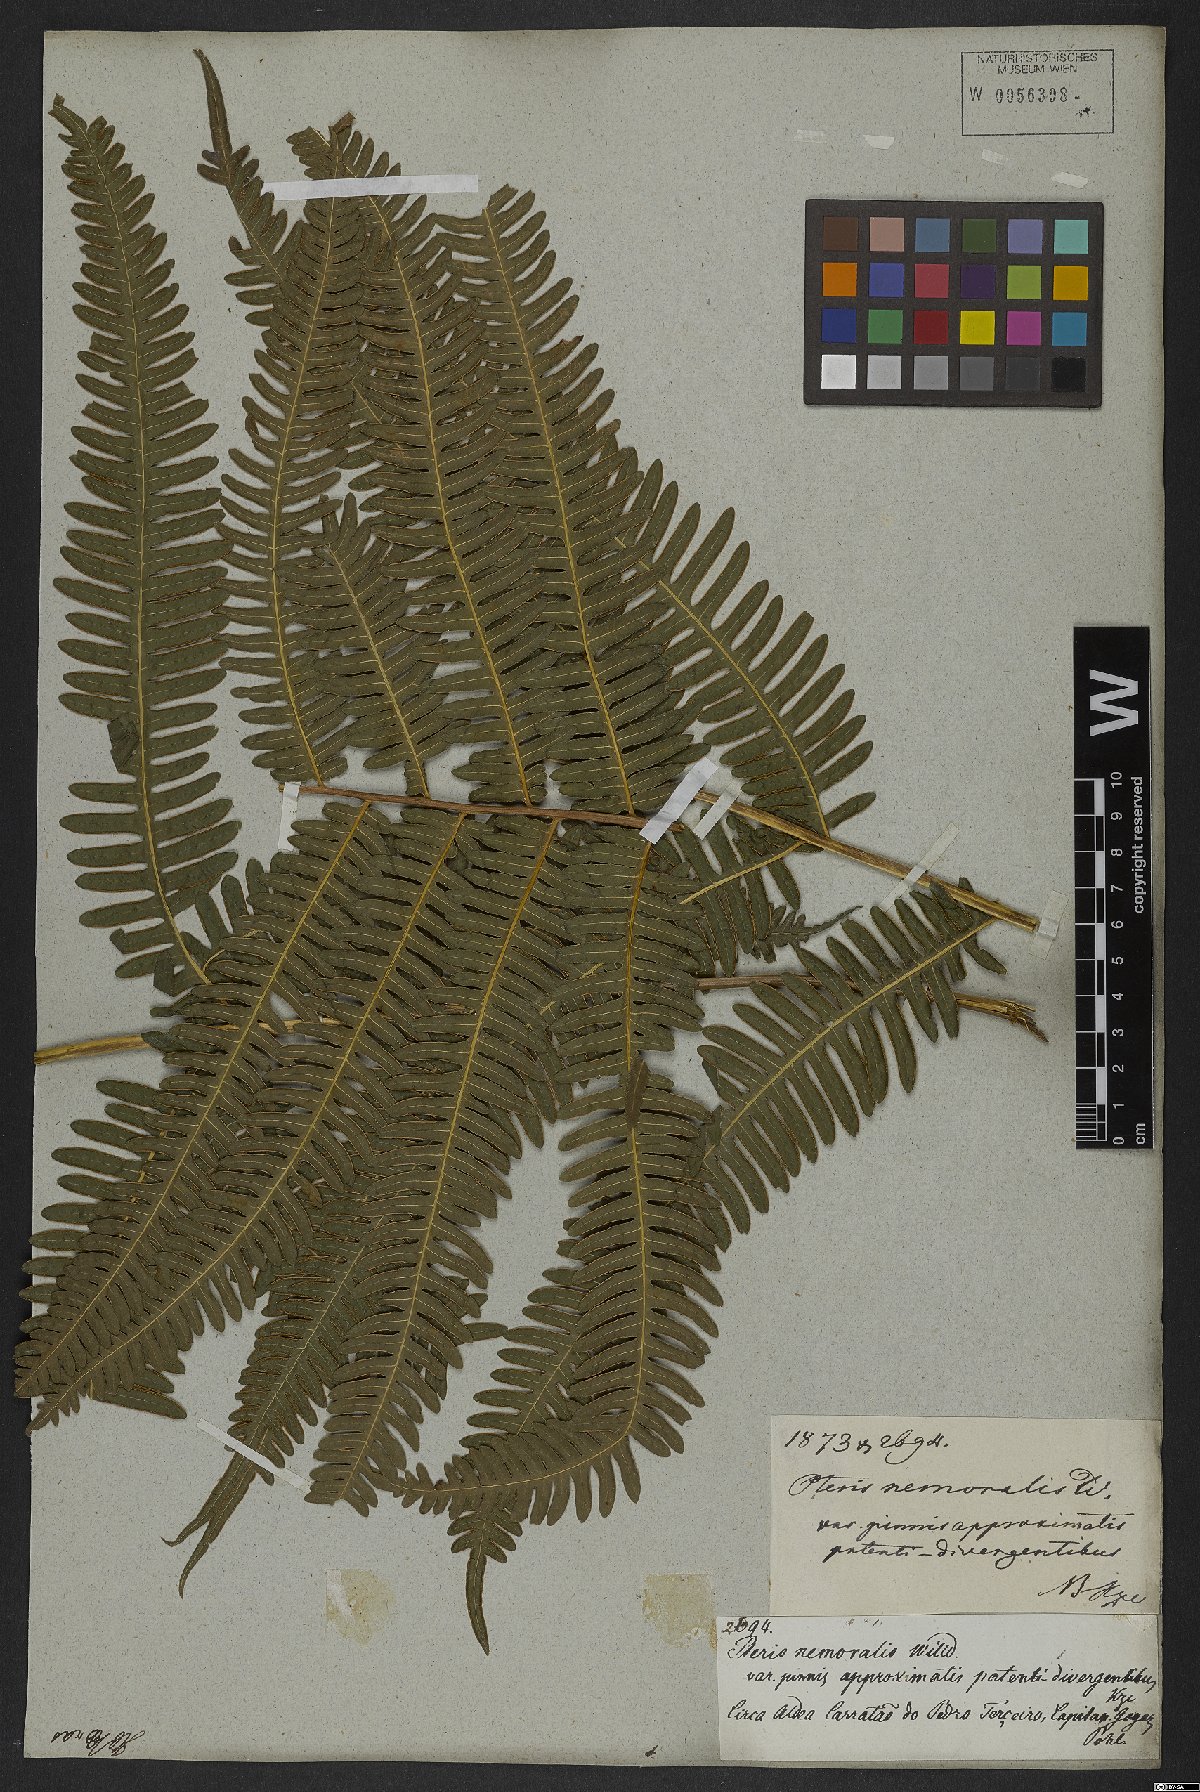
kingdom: Plantae
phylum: Tracheophyta
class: Polypodiopsida
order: Polypodiales
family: Pteridaceae
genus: Pteris
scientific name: Pteris biaurita
